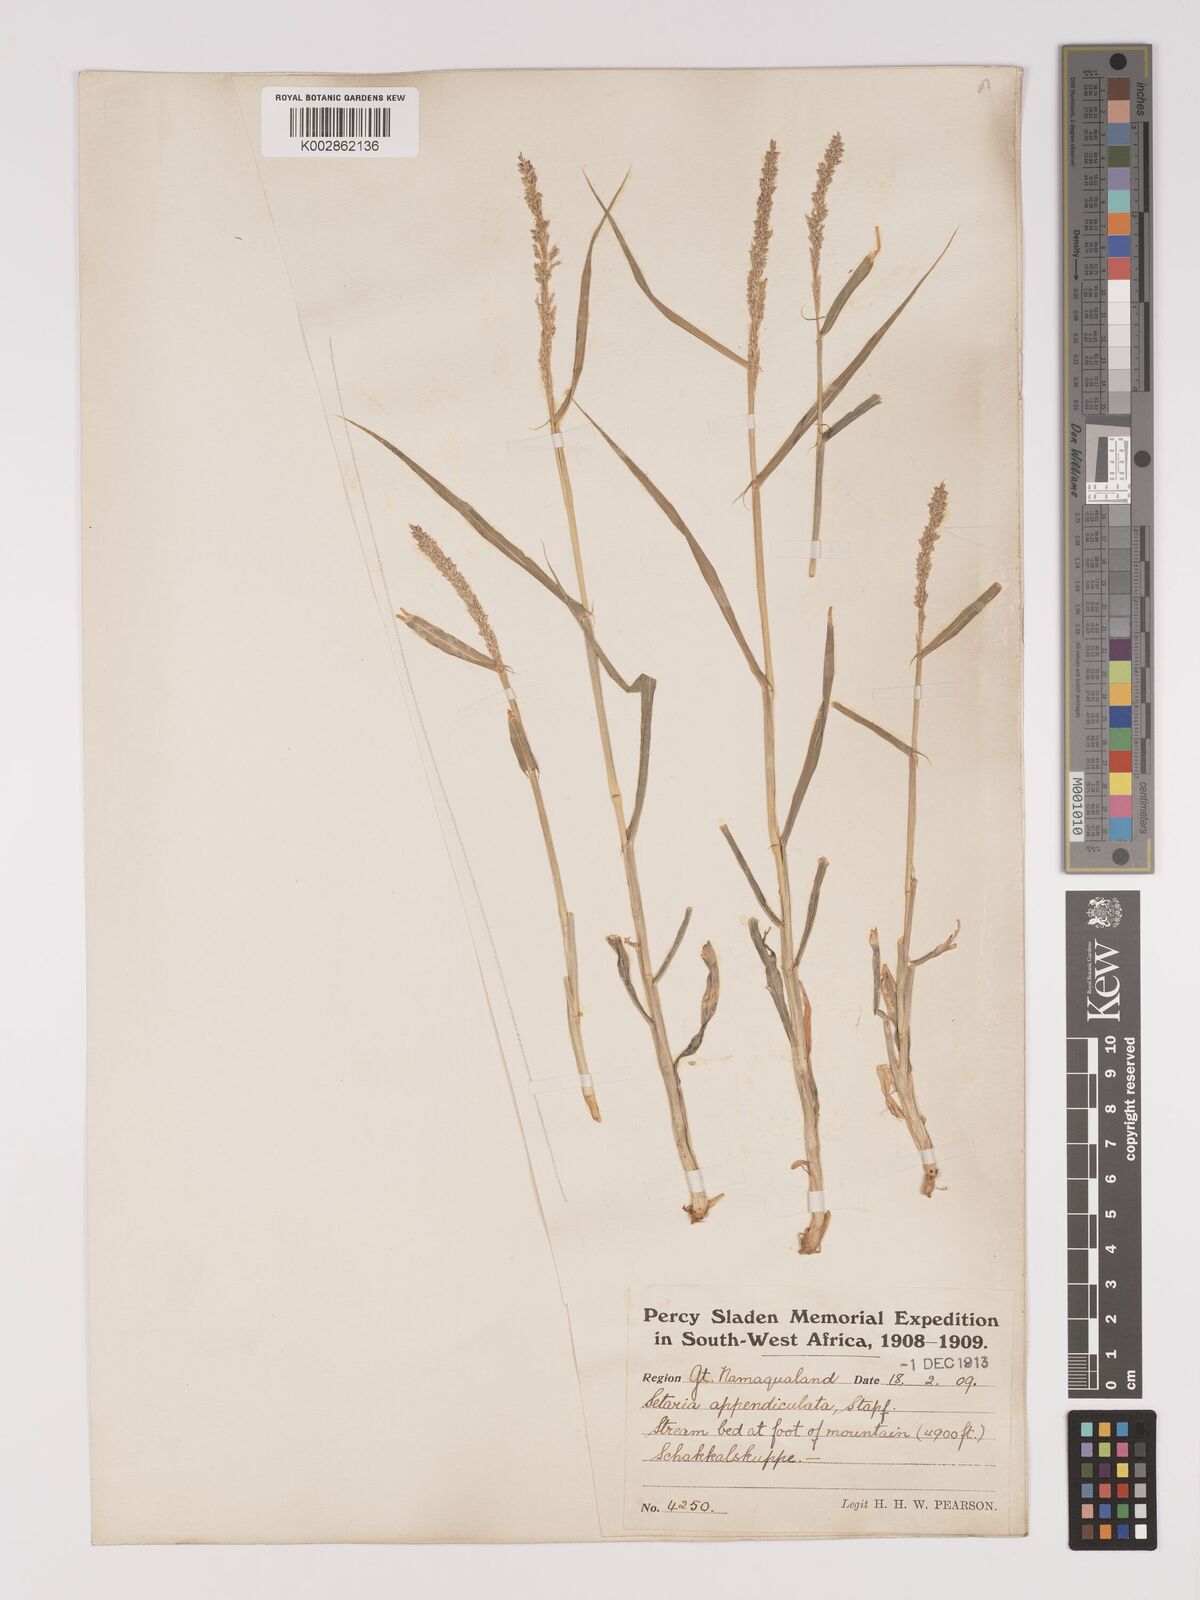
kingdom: Plantae
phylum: Tracheophyta
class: Liliopsida
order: Poales
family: Poaceae
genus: Setaria
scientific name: Setaria appendiculata
